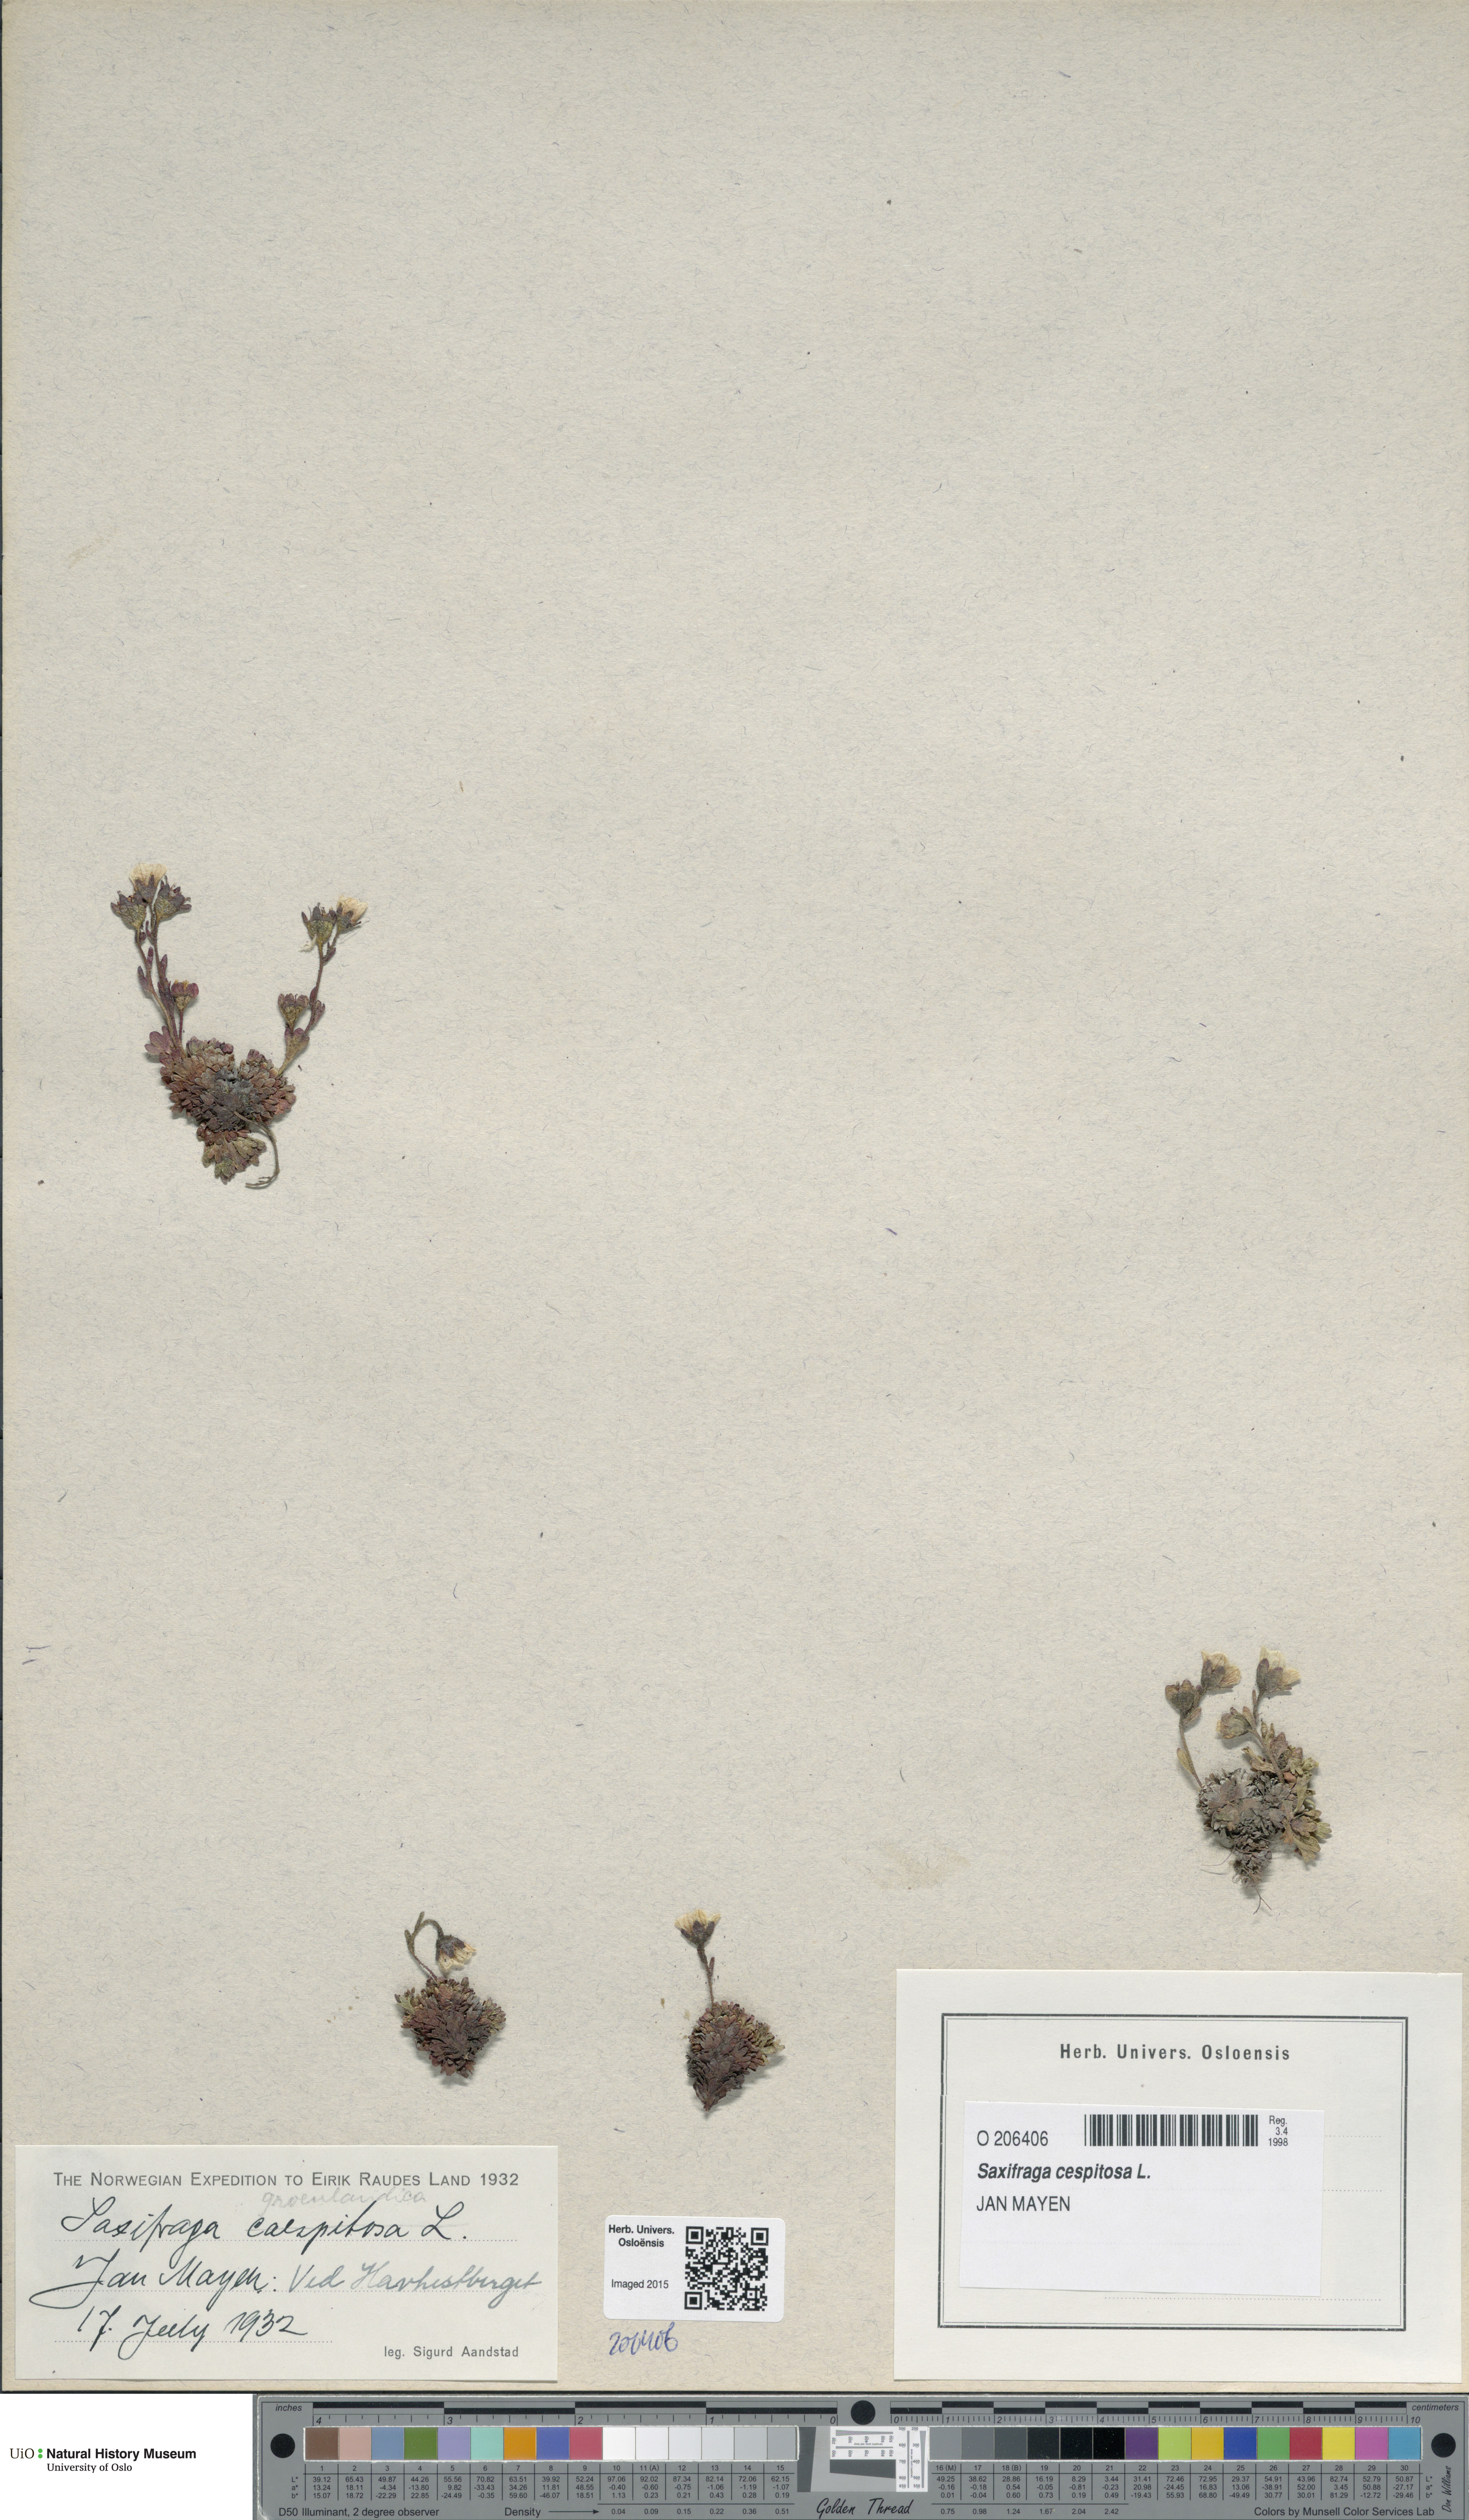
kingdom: Plantae
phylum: Tracheophyta
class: Magnoliopsida
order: Saxifragales
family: Saxifragaceae
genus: Saxifraga
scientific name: Saxifraga cespitosa
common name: Tufted saxifrage
